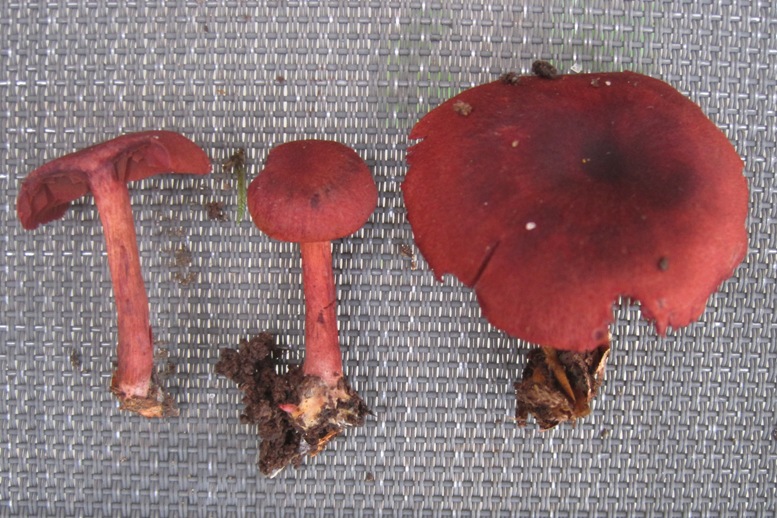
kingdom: Fungi
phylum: Basidiomycota
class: Agaricomycetes
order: Agaricales
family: Cortinariaceae
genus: Cortinarius
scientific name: Cortinarius sanguineus
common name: Bloodred webcap
